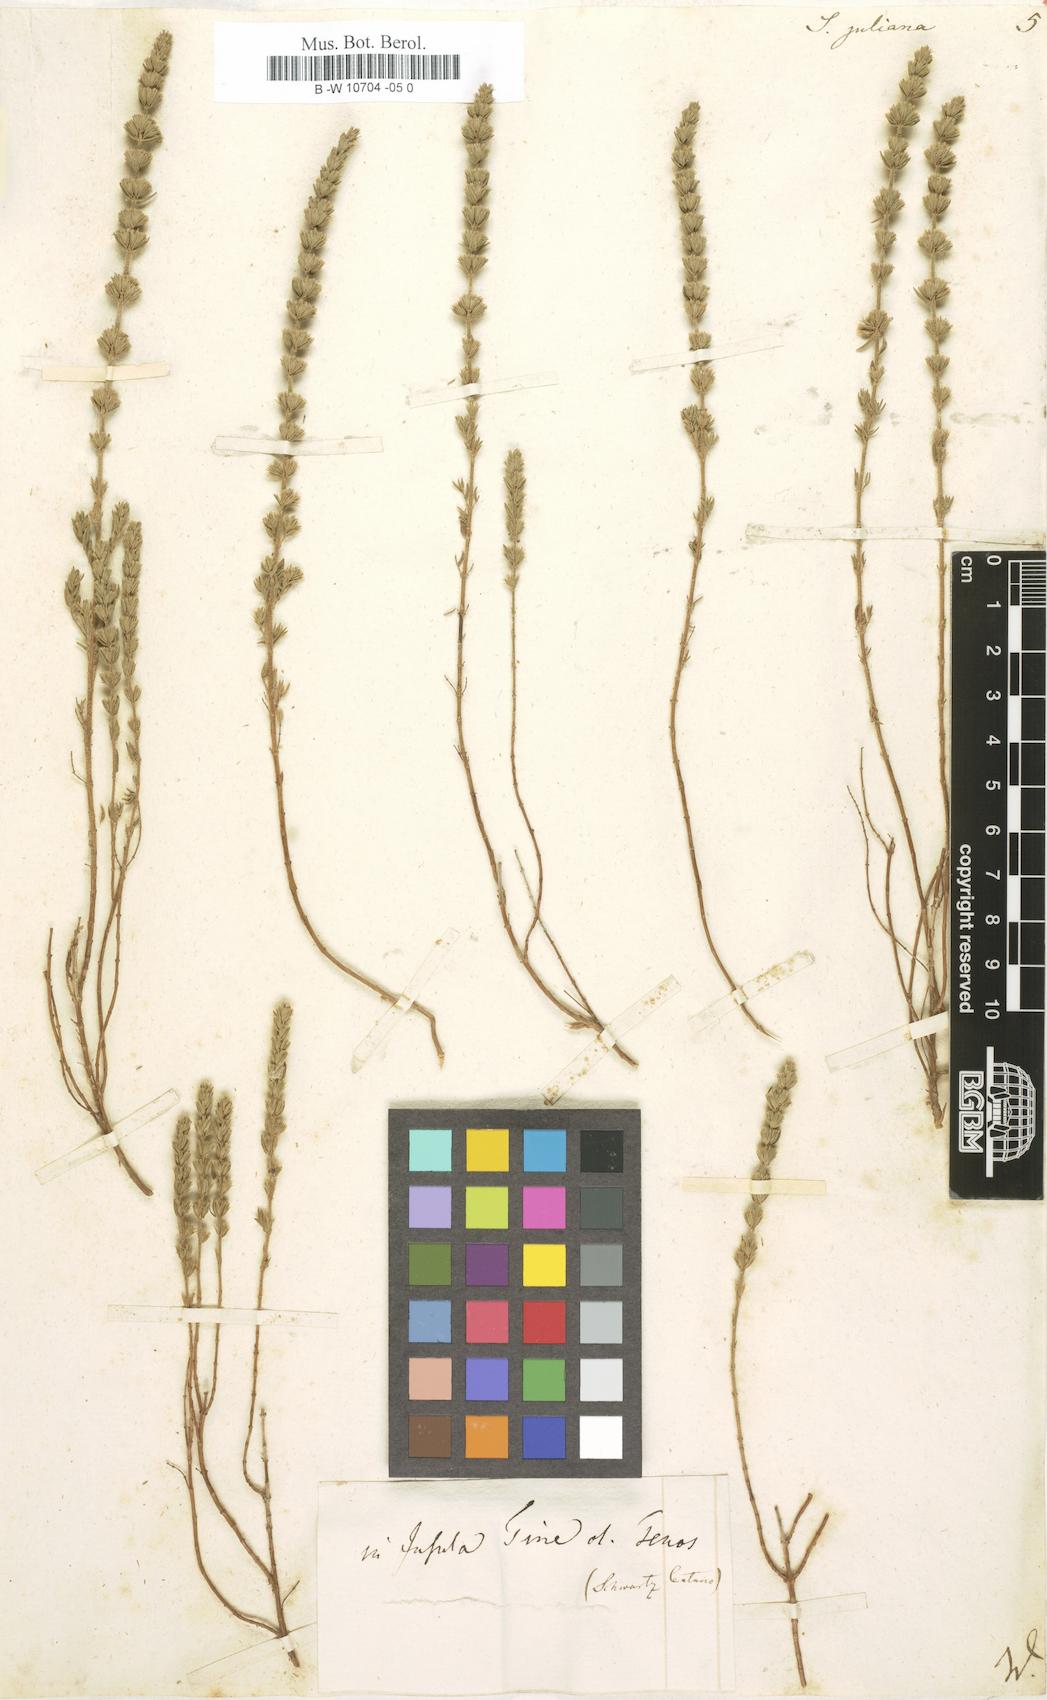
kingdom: Plantae
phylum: Tracheophyta
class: Magnoliopsida
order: Lamiales
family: Lamiaceae
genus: Micromeria
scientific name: Micromeria juliana
